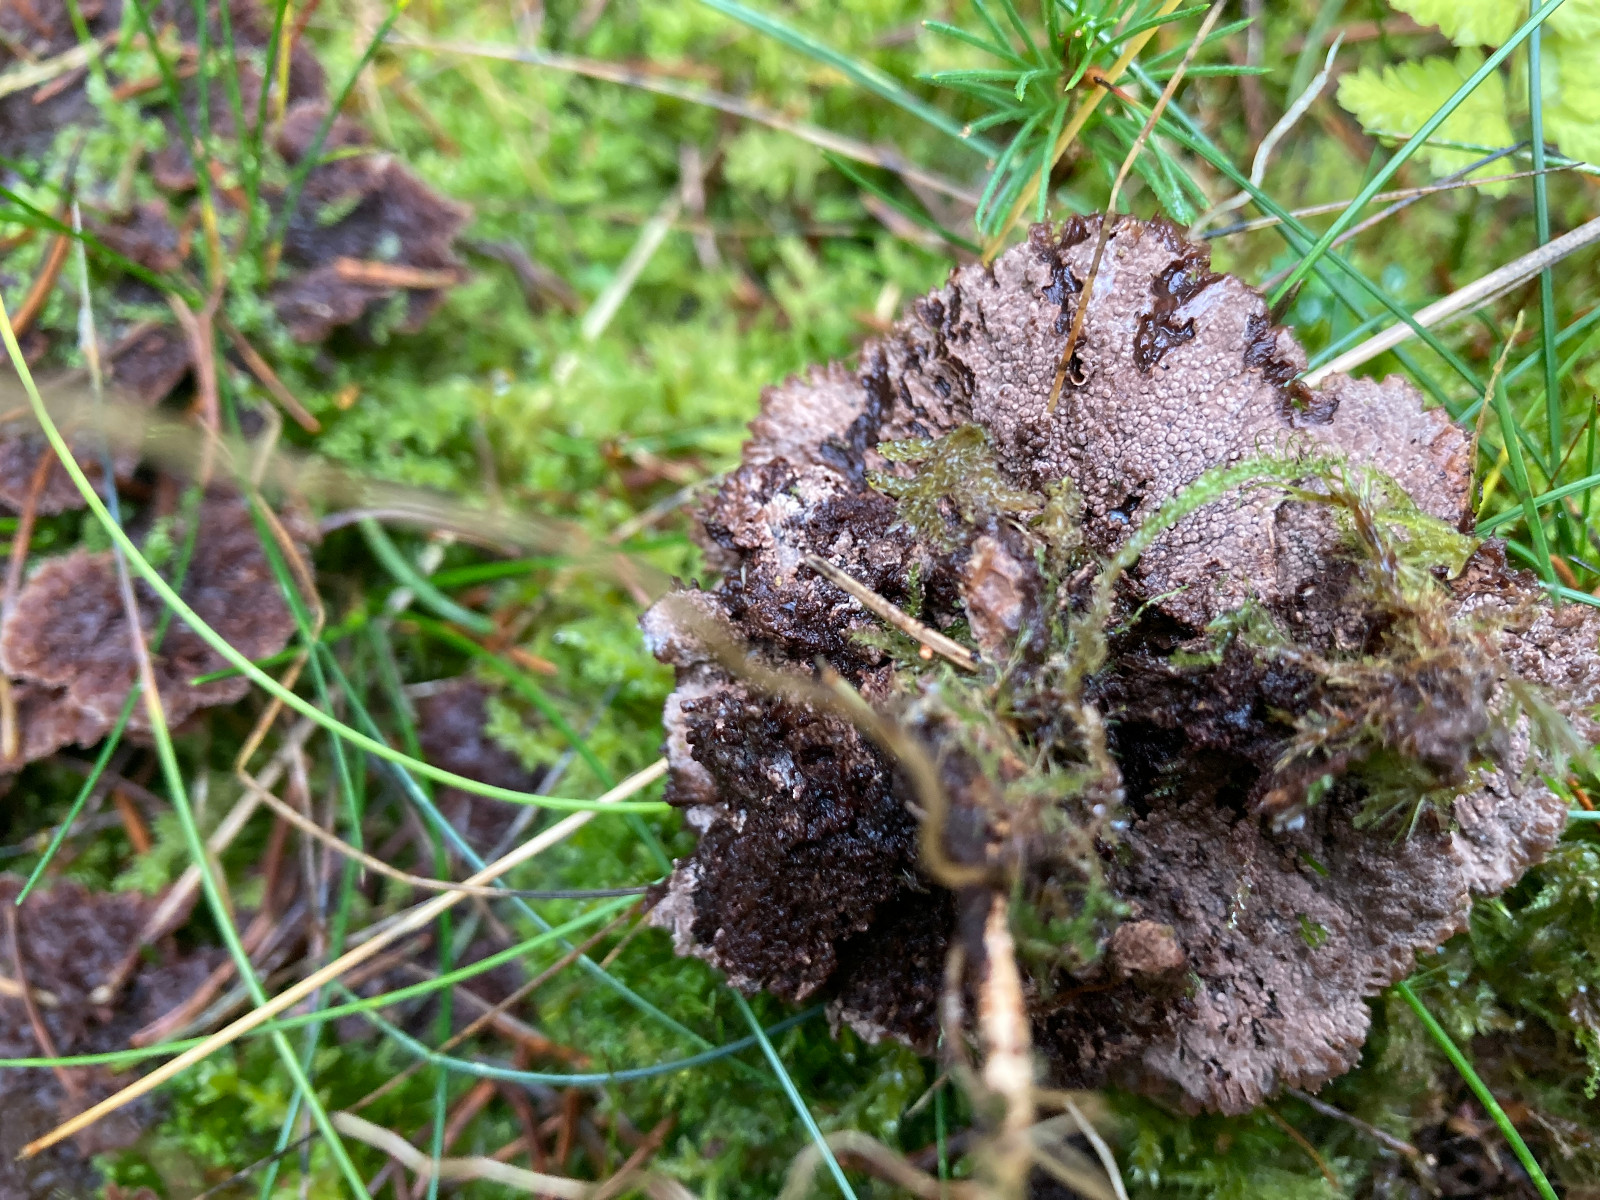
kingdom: Fungi
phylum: Basidiomycota
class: Agaricomycetes
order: Thelephorales
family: Thelephoraceae
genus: Thelephora
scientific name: Thelephora terrestris
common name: fliget frynsesvamp
